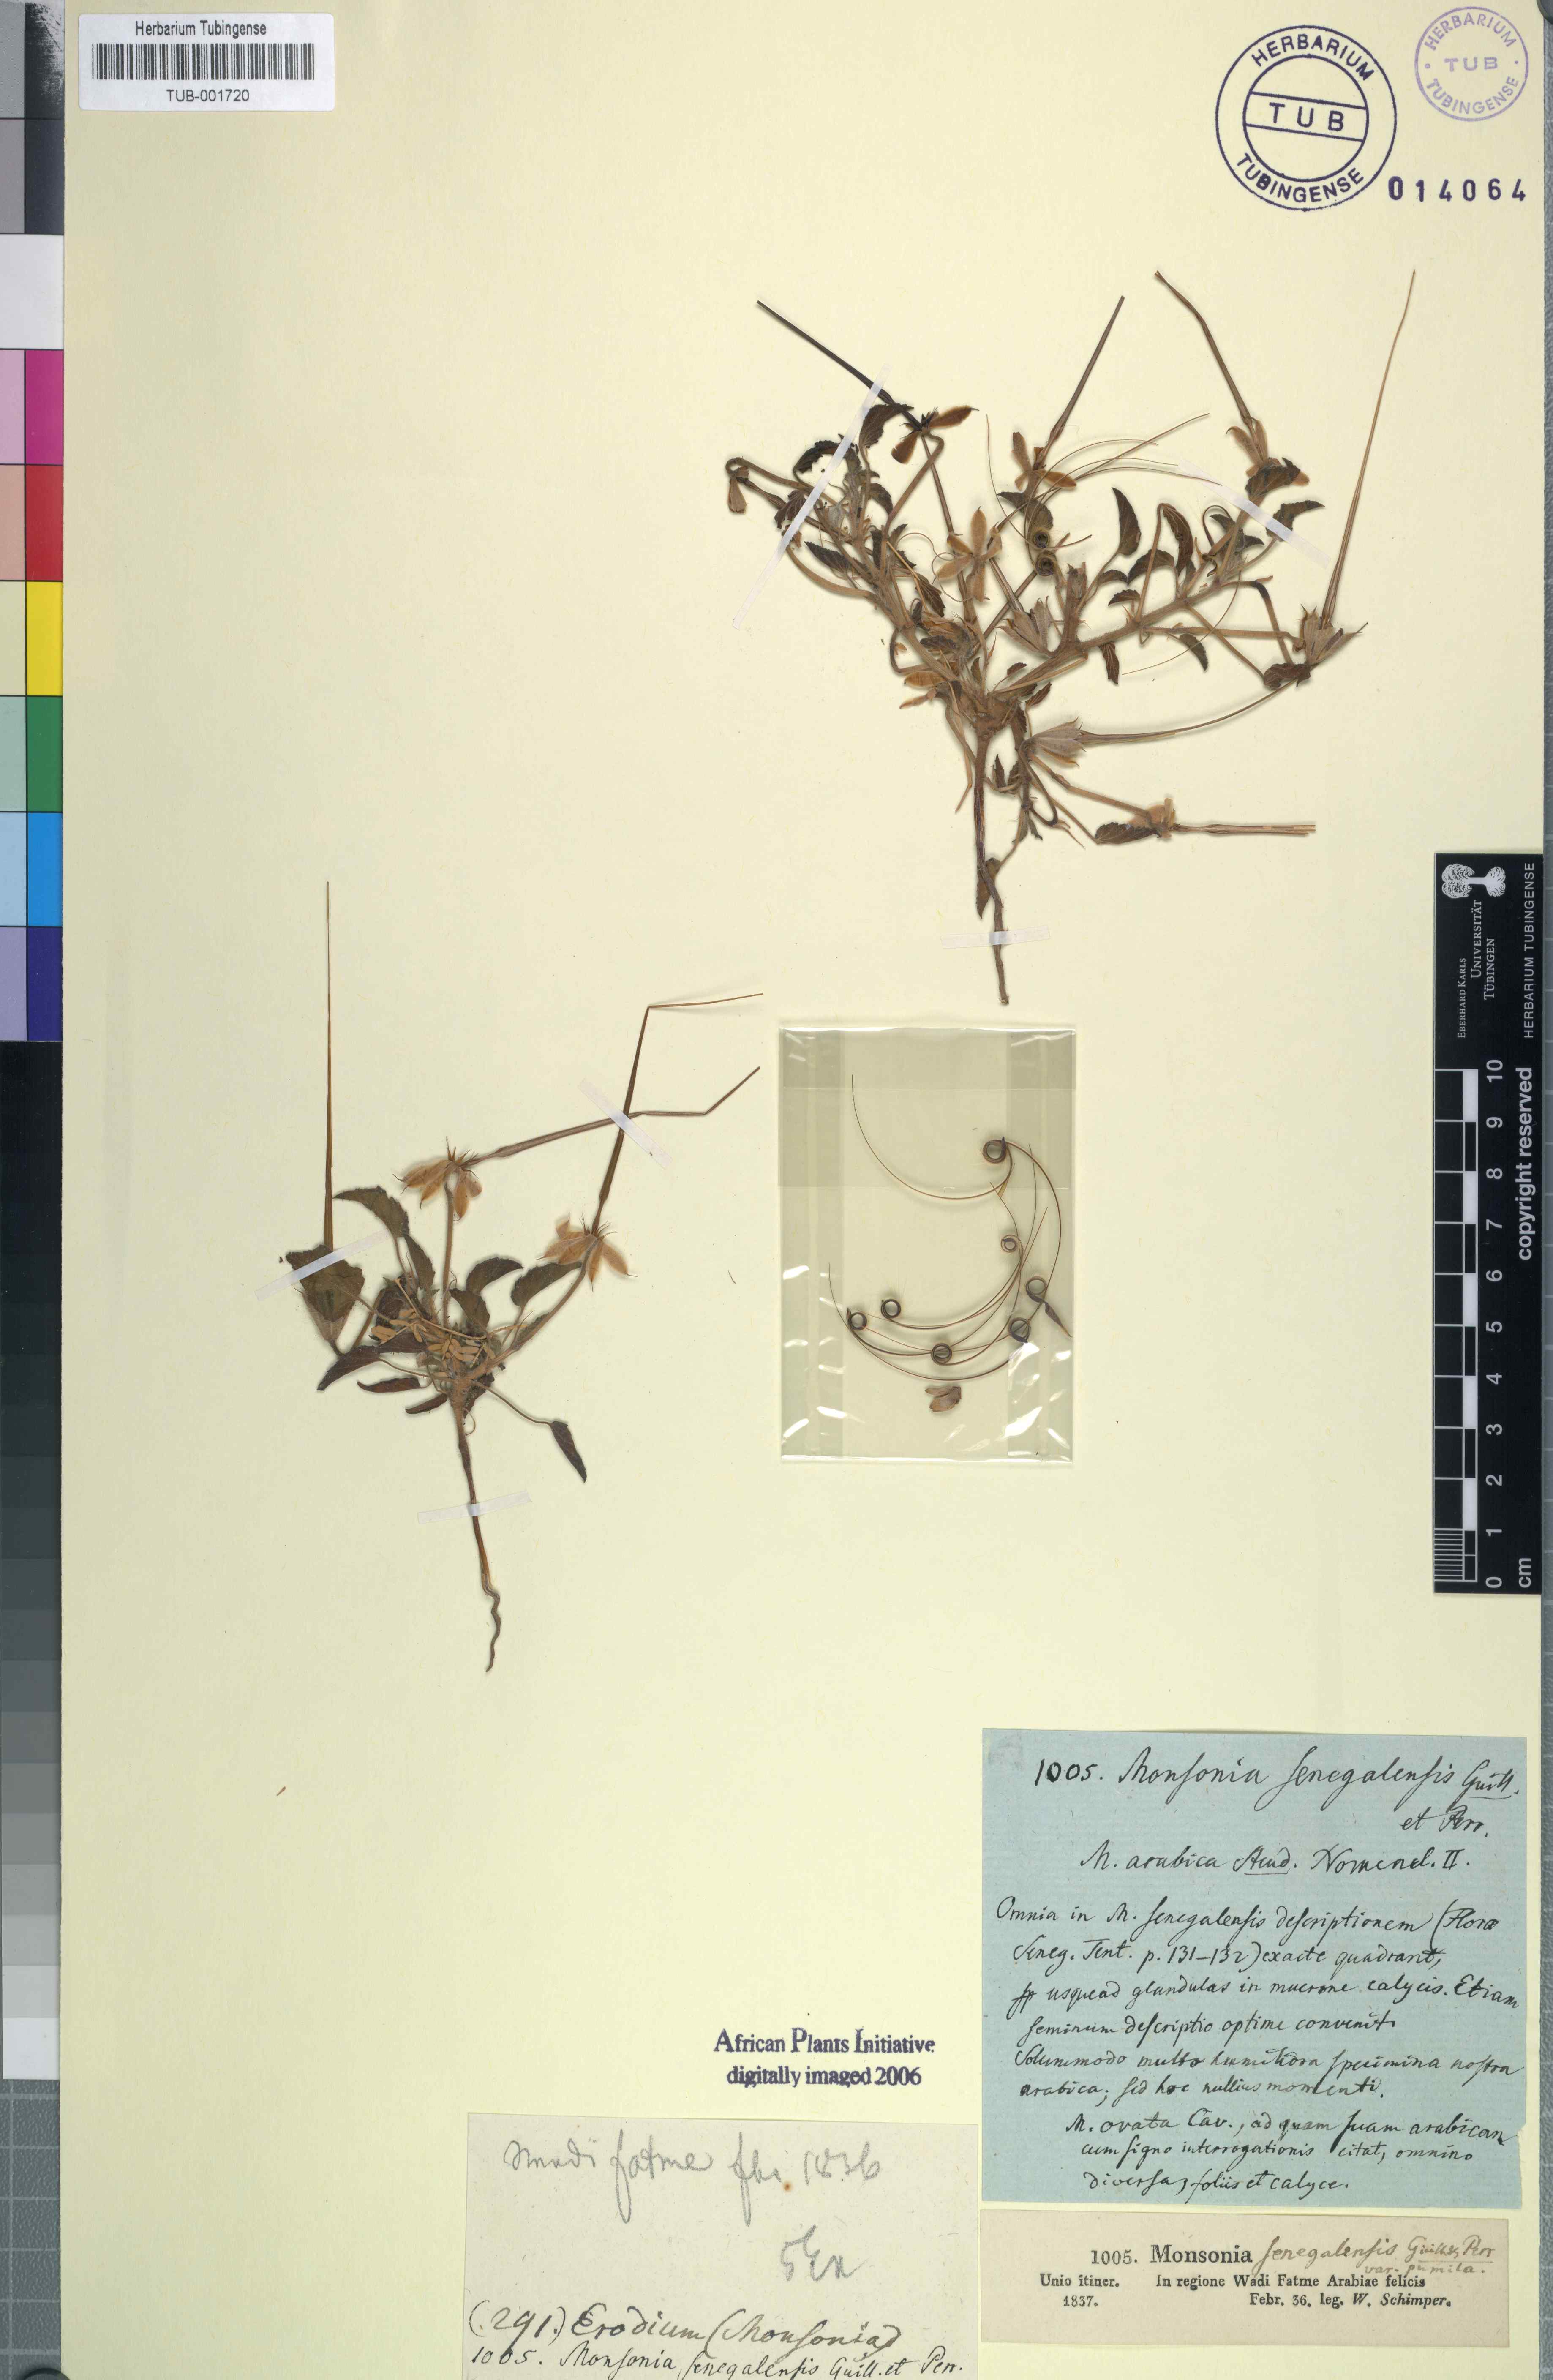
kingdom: Plantae
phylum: Tracheophyta
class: Magnoliopsida
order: Geraniales
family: Geraniaceae
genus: Monsonia
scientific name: Monsonia senegalensis
